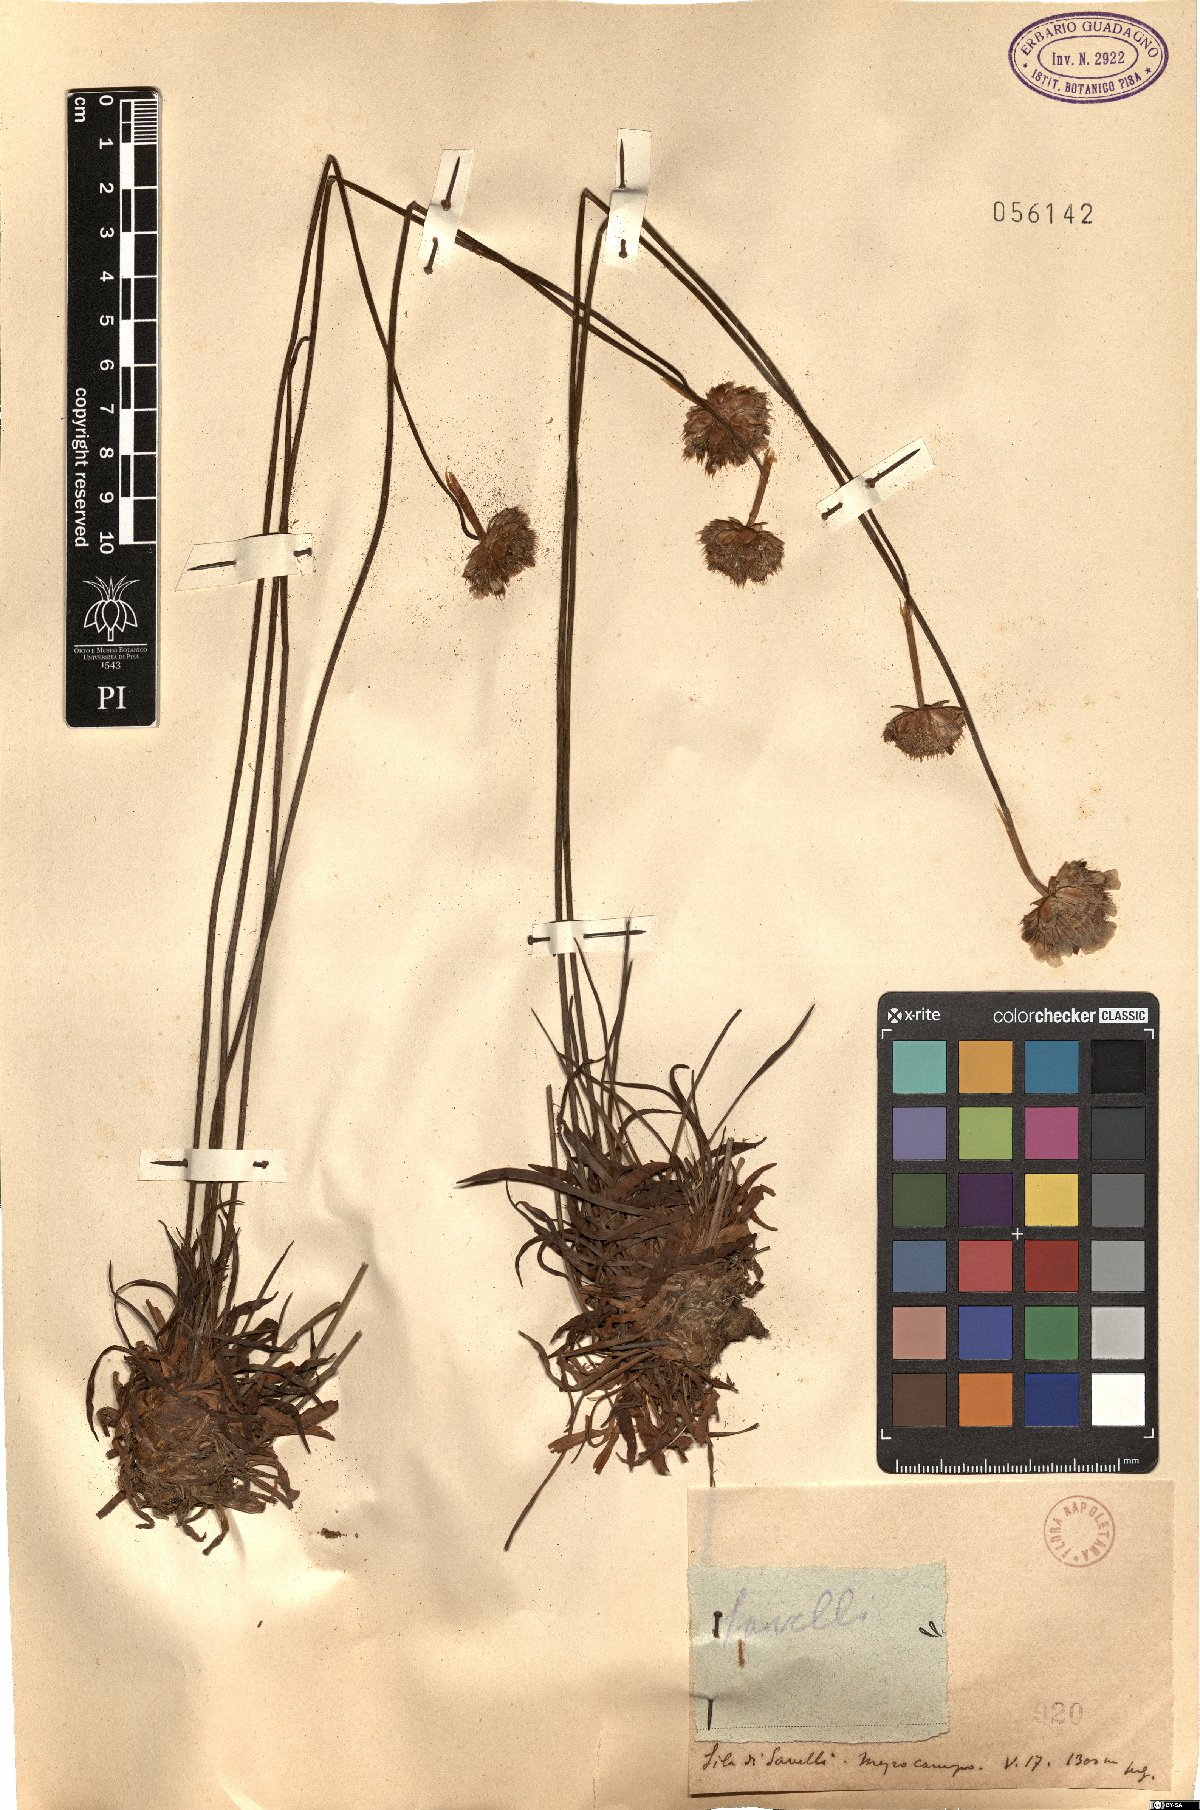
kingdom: Plantae
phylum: Tracheophyta
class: Magnoliopsida
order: Caryophyllales
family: Plumbaginaceae
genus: Armeria
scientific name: Armeria
